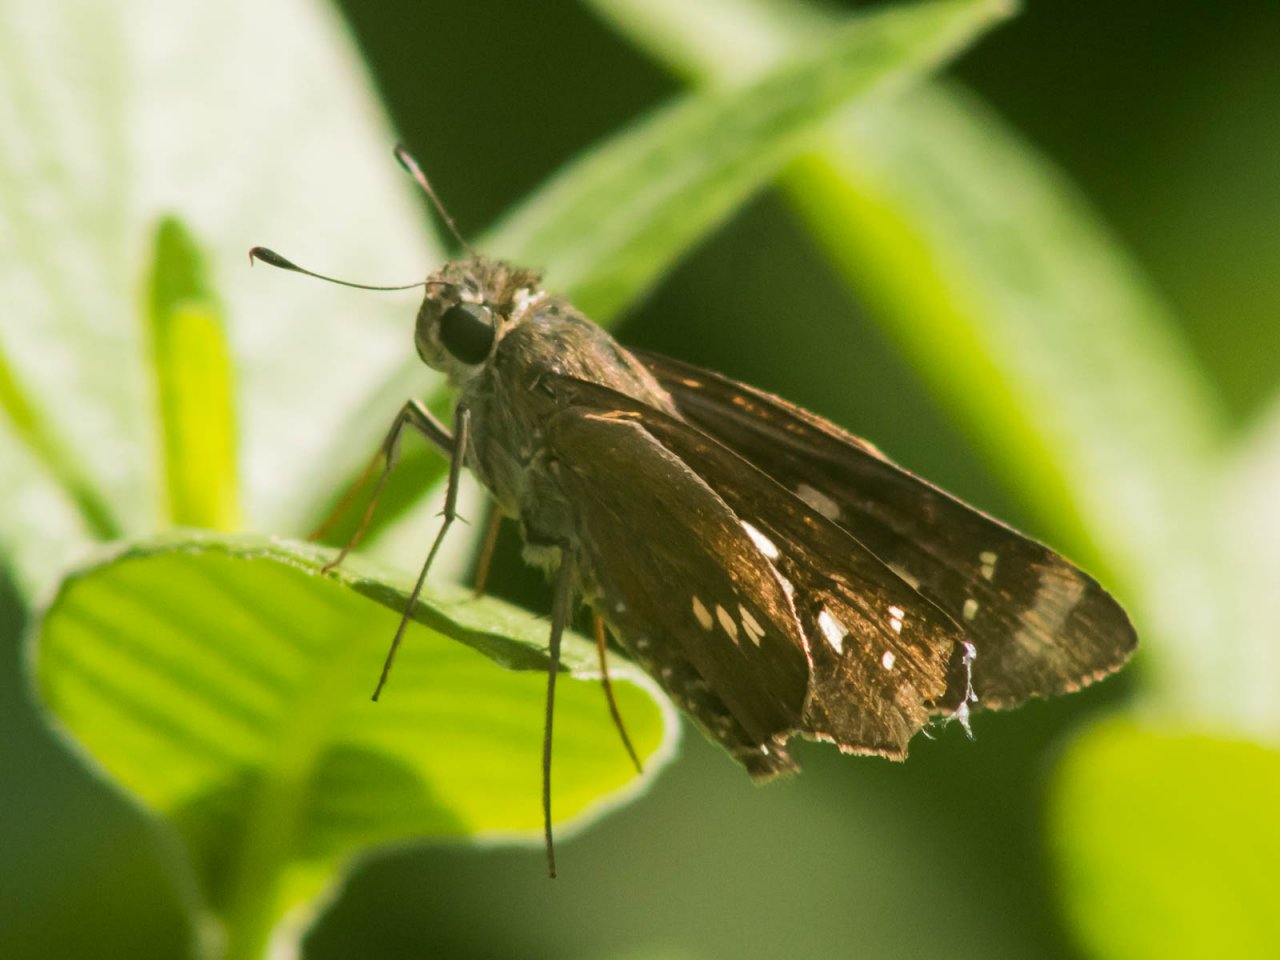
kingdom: Animalia
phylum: Arthropoda
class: Insecta
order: Lepidoptera
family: Hesperiidae
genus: Calpodes
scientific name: Calpodes ethlius
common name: Brazilian Skipper
